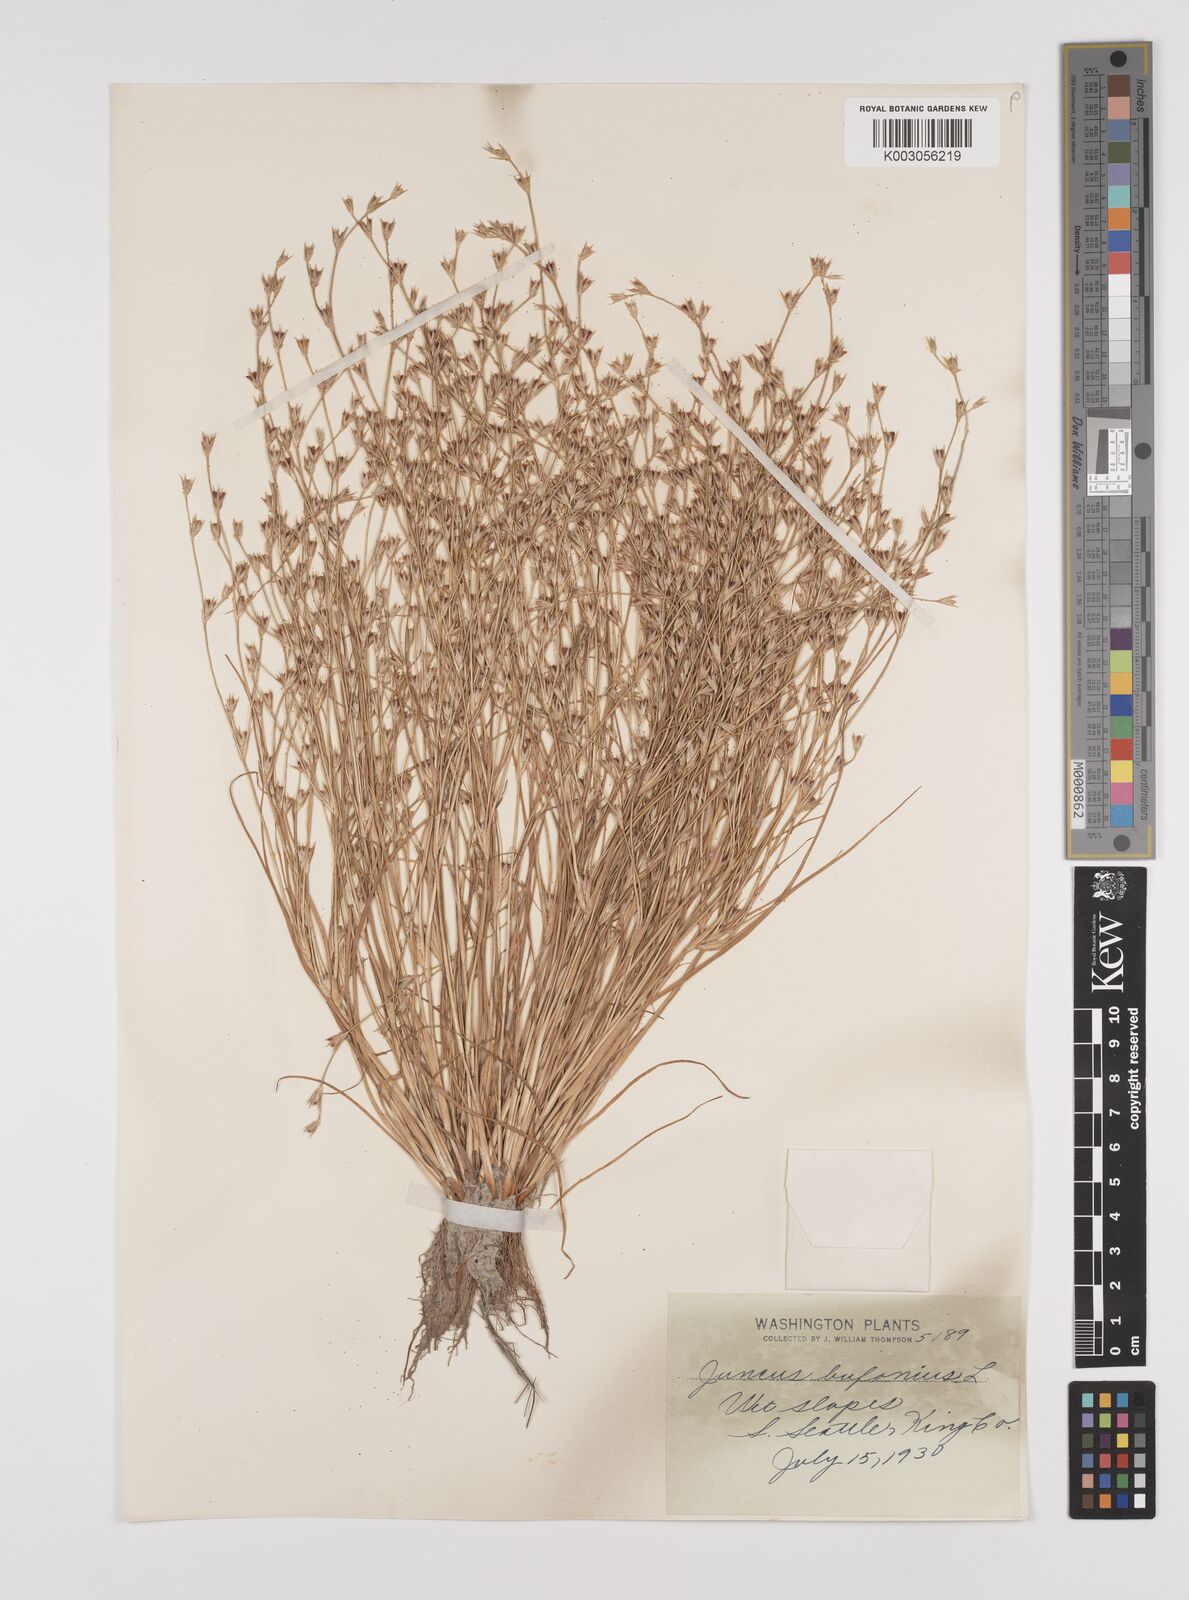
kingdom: Plantae
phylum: Tracheophyta
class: Liliopsida
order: Poales
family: Juncaceae
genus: Juncus
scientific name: Juncus bufonius
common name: Toad rush
